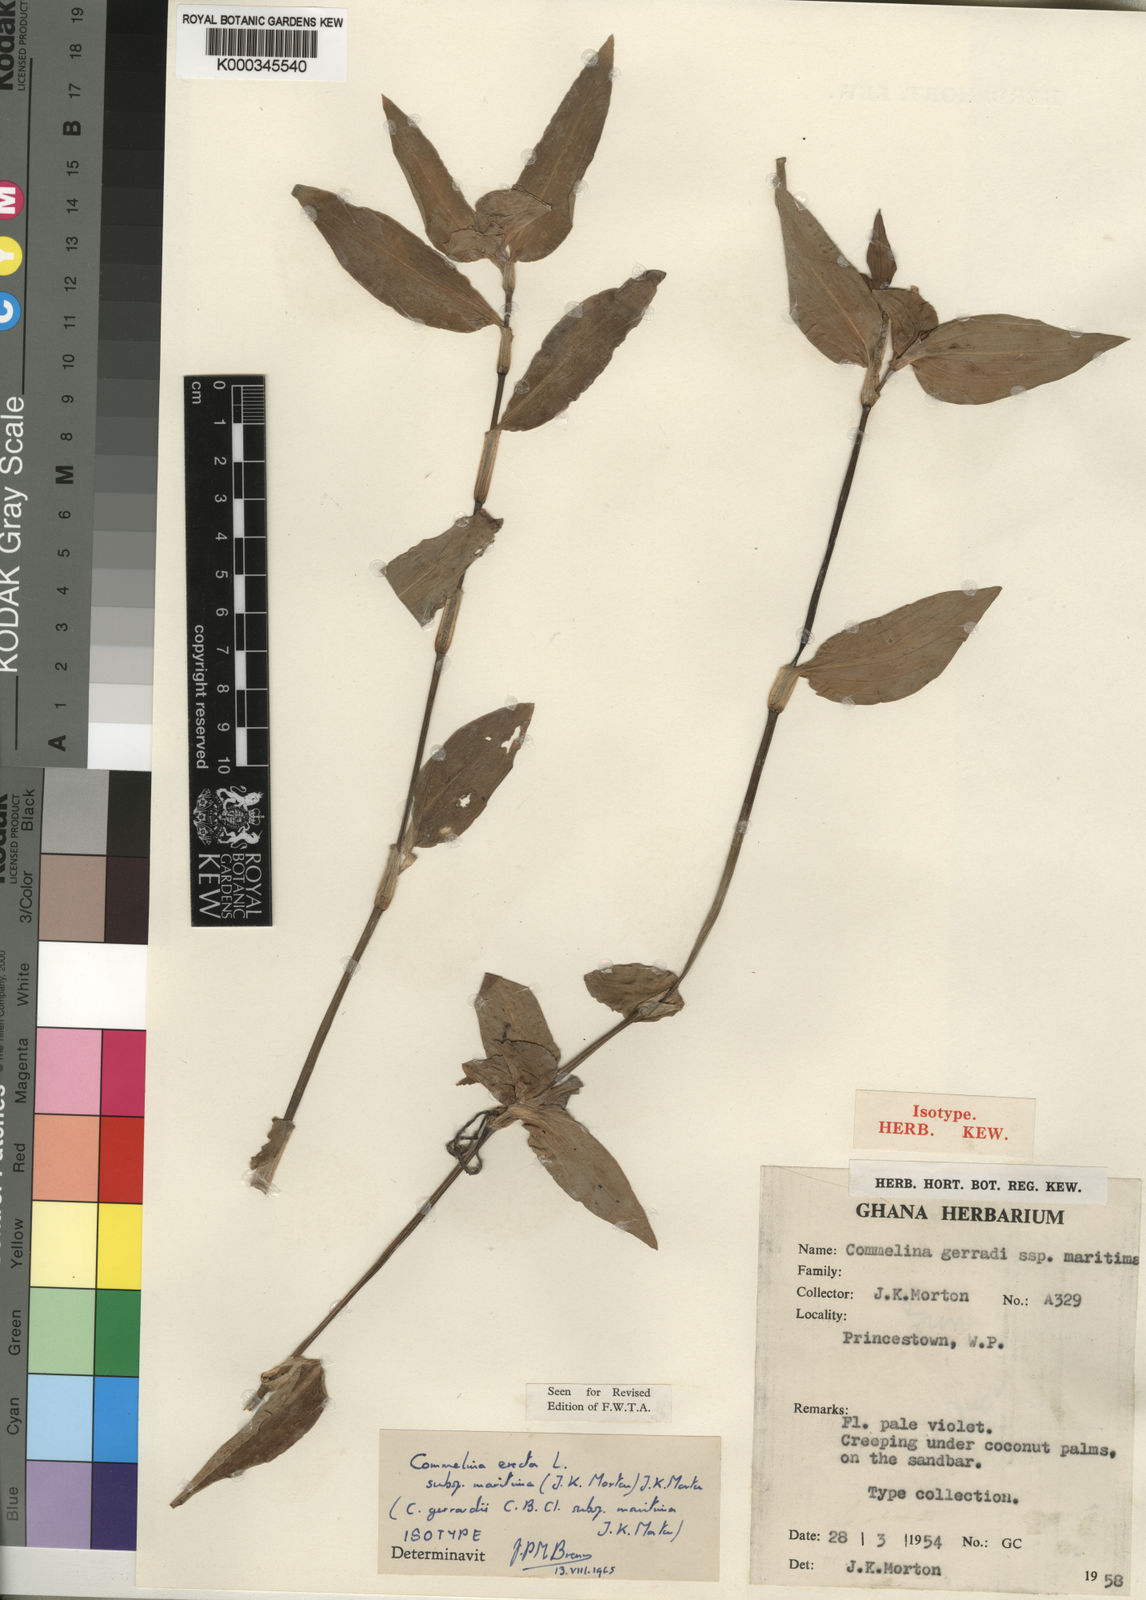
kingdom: Plantae
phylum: Tracheophyta
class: Liliopsida
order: Commelinales
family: Commelinaceae
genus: Commelina
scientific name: Commelina erecta
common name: Blousel blommetjie
